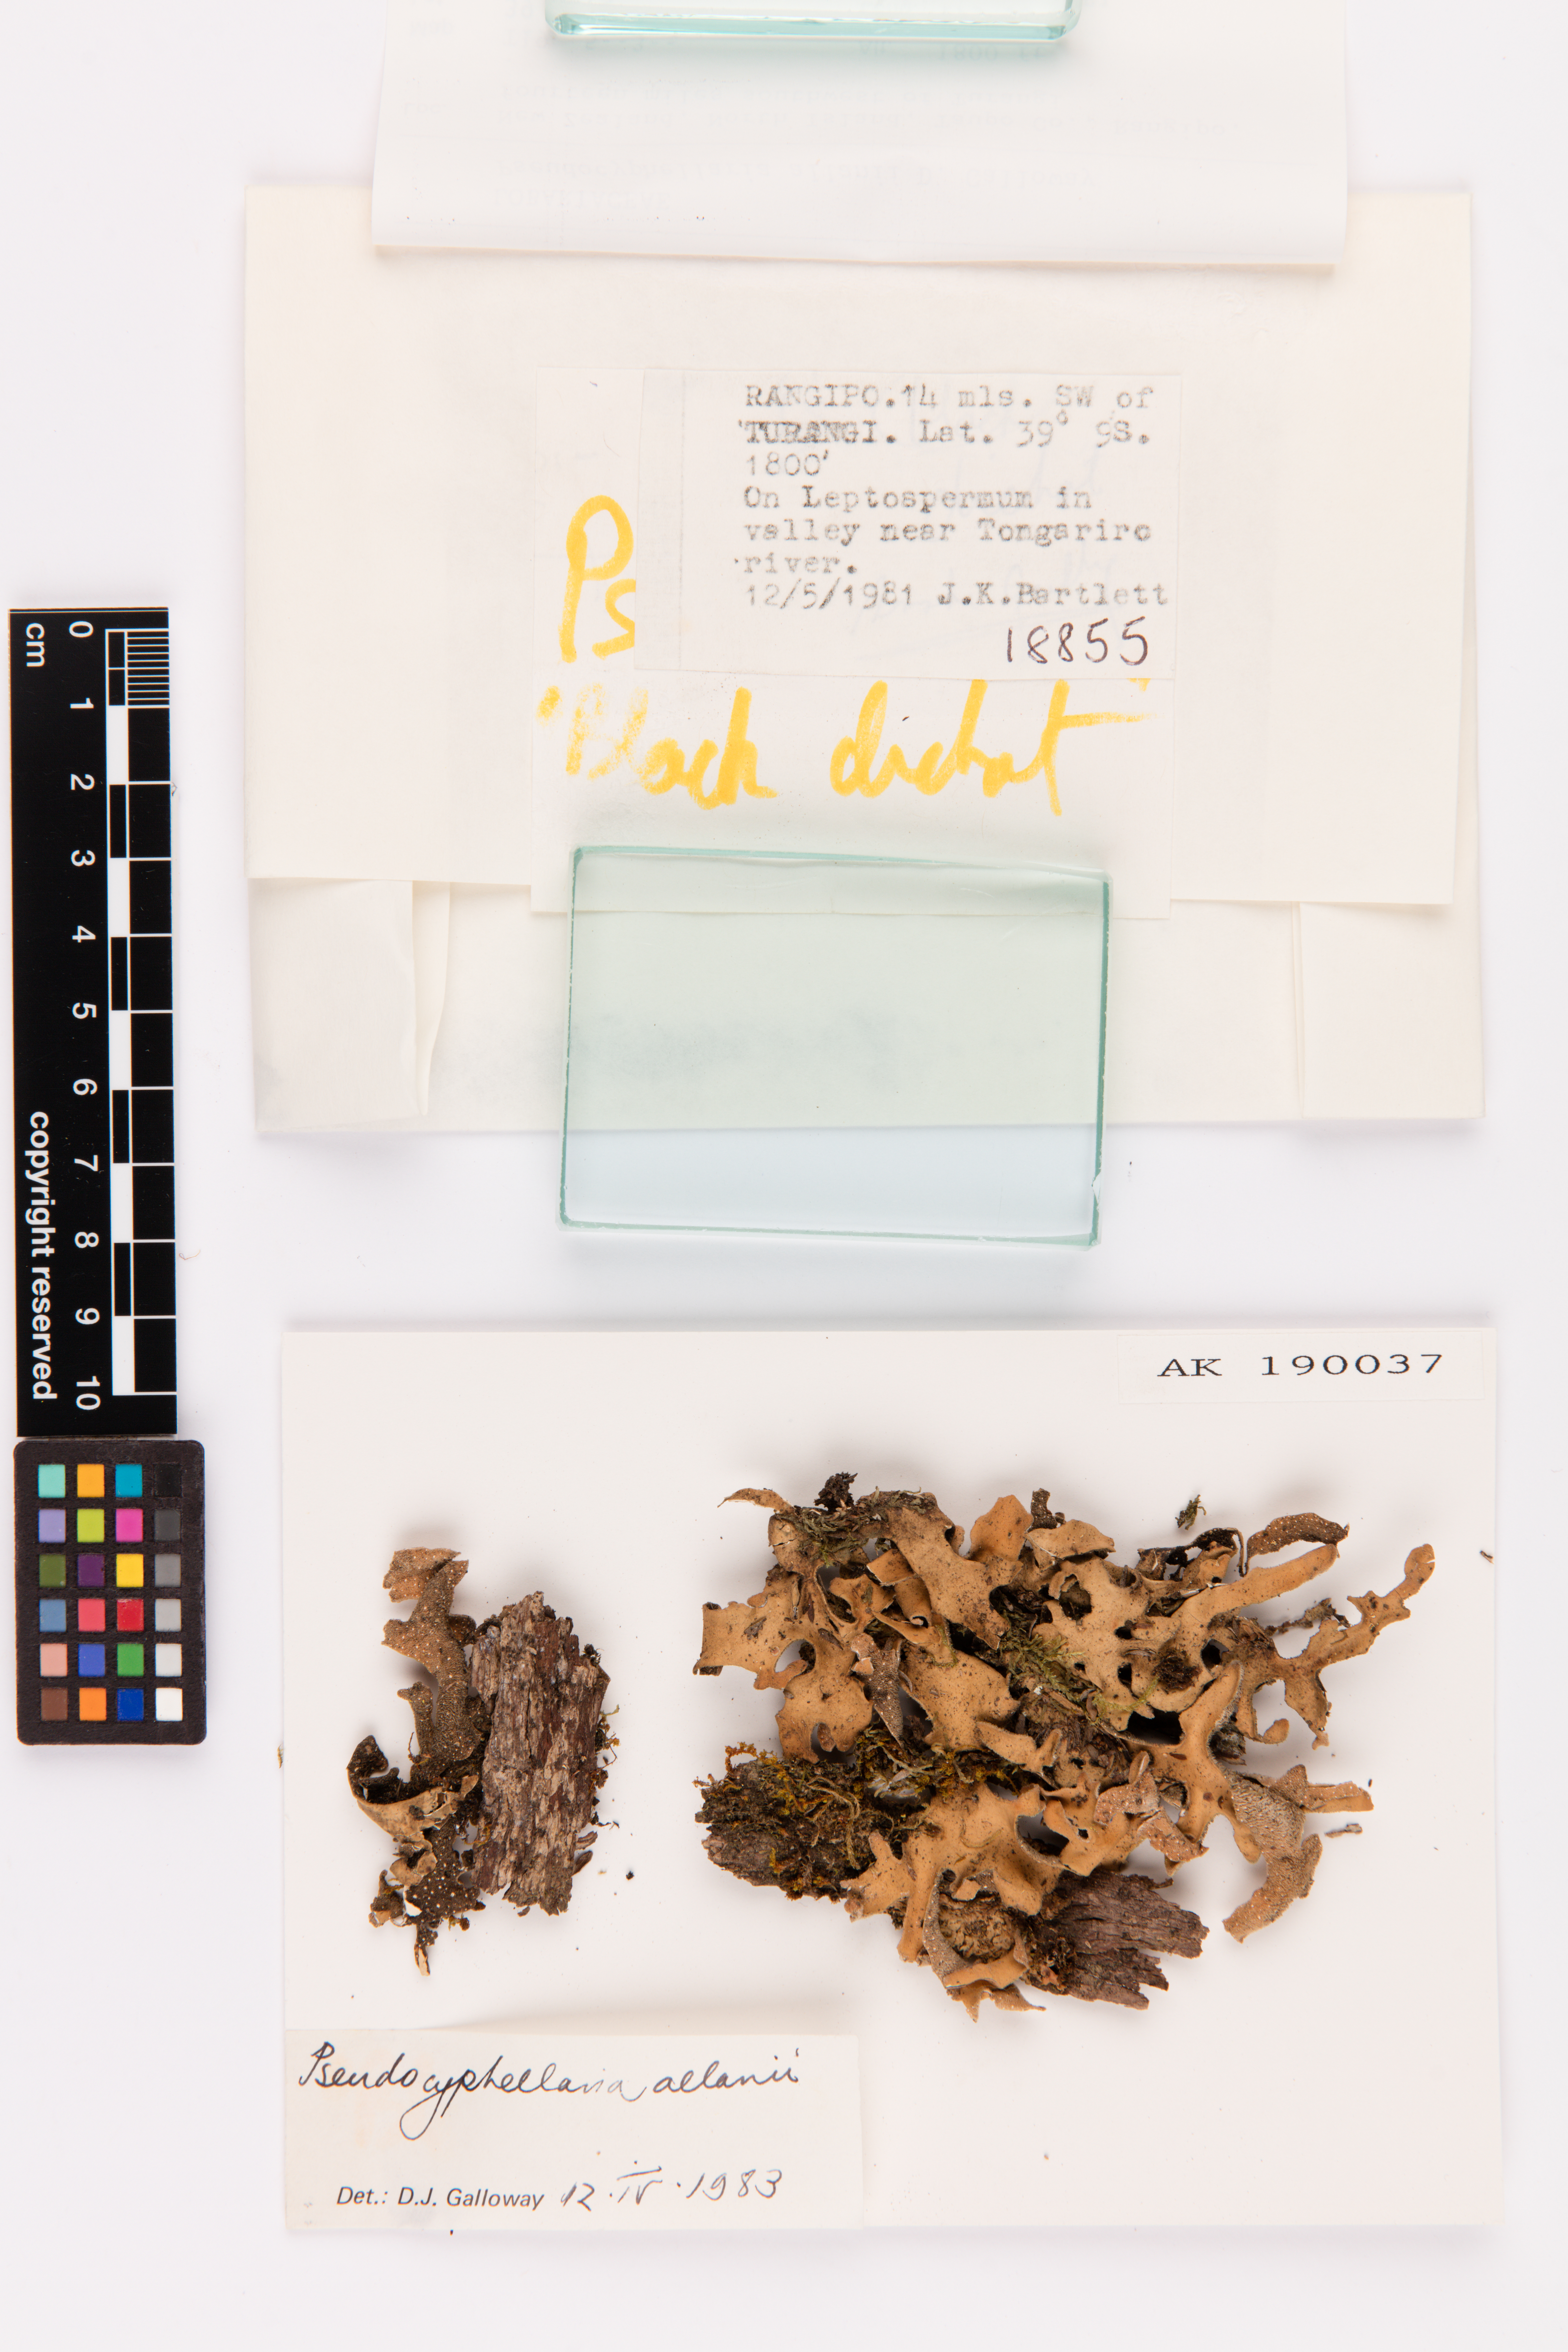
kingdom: Fungi
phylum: Ascomycota
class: Lecanoromycetes
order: Peltigerales
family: Lobariaceae
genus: Pseudocyphellaria
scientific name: Pseudocyphellaria allanii
